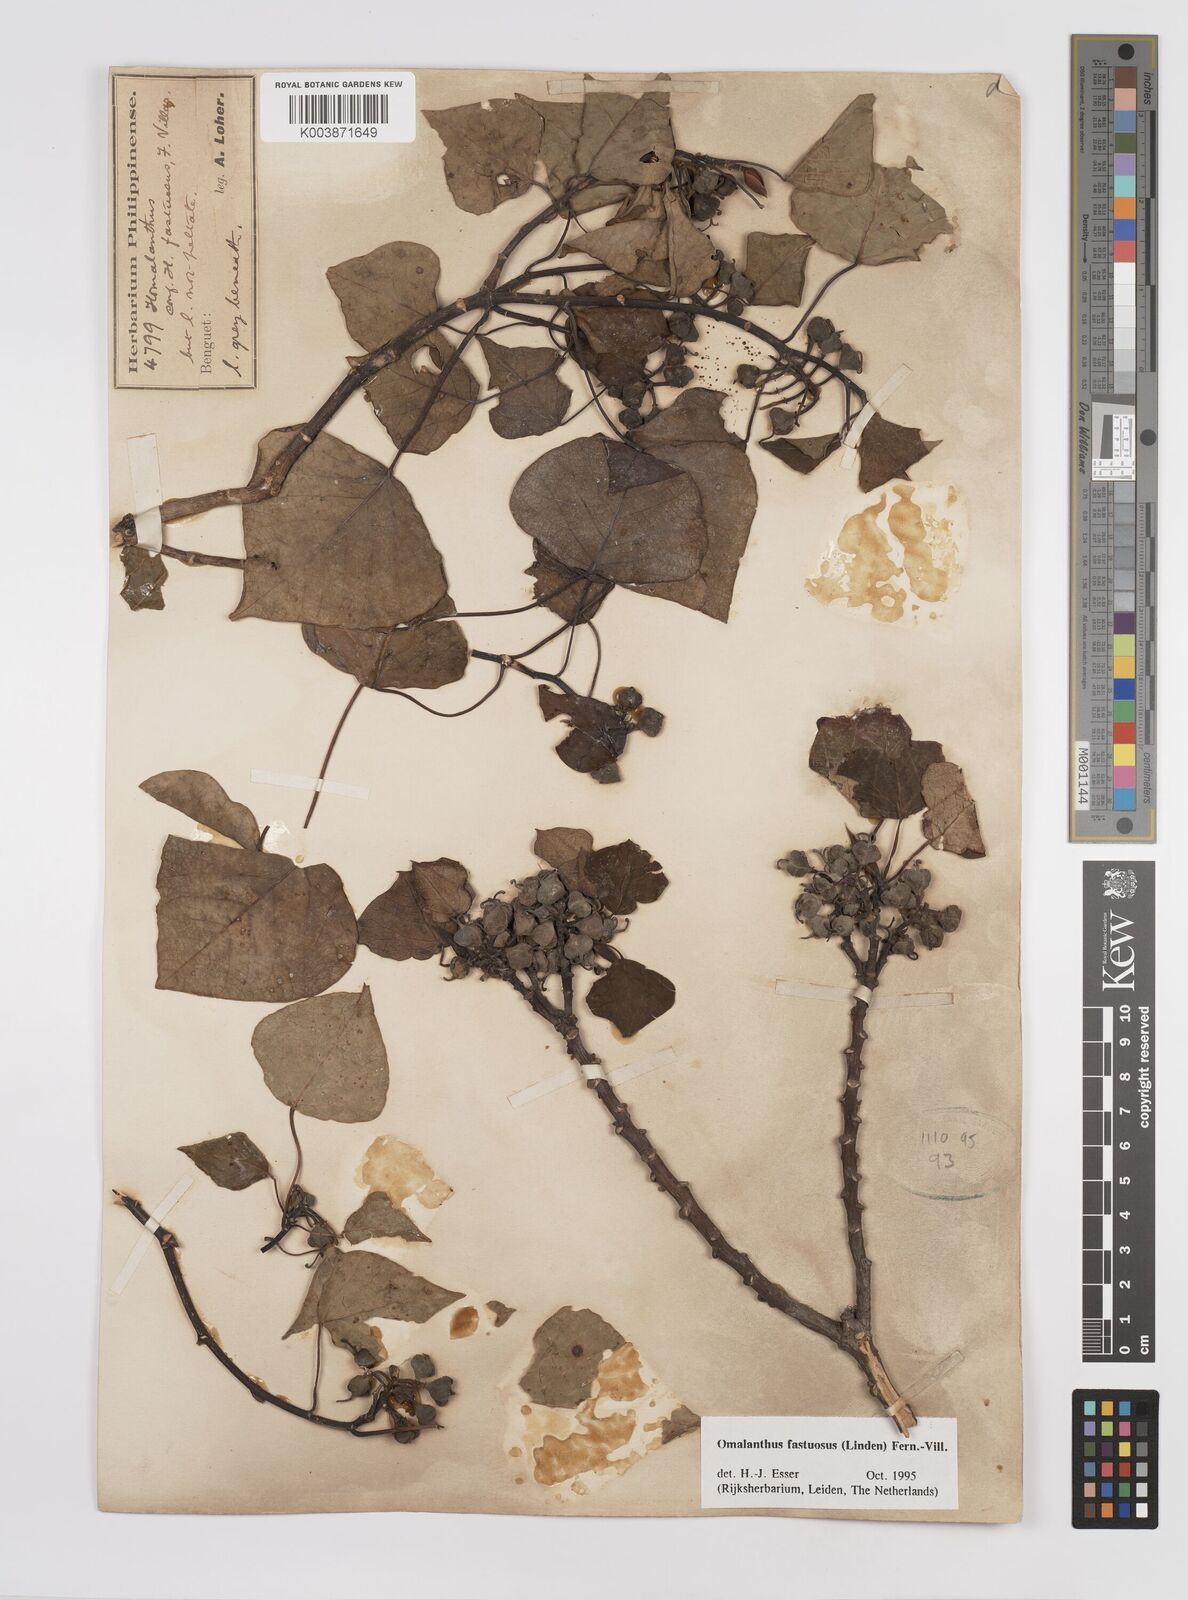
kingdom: Plantae
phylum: Tracheophyta
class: Magnoliopsida
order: Malpighiales
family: Euphorbiaceae
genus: Homalanthus
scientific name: Homalanthus fastuosus
